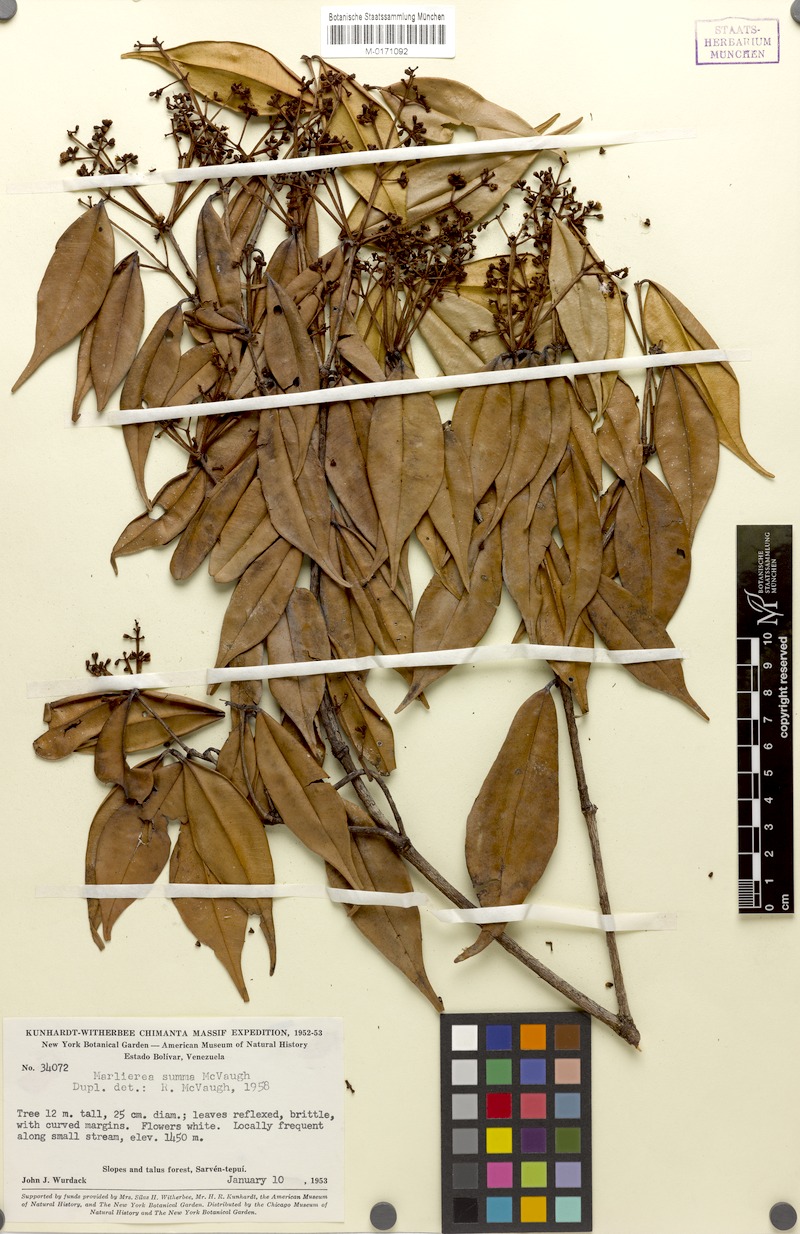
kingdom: Plantae
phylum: Tracheophyta
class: Magnoliopsida
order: Myrtales
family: Myrtaceae
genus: Myrcia
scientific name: Myrcia summa
